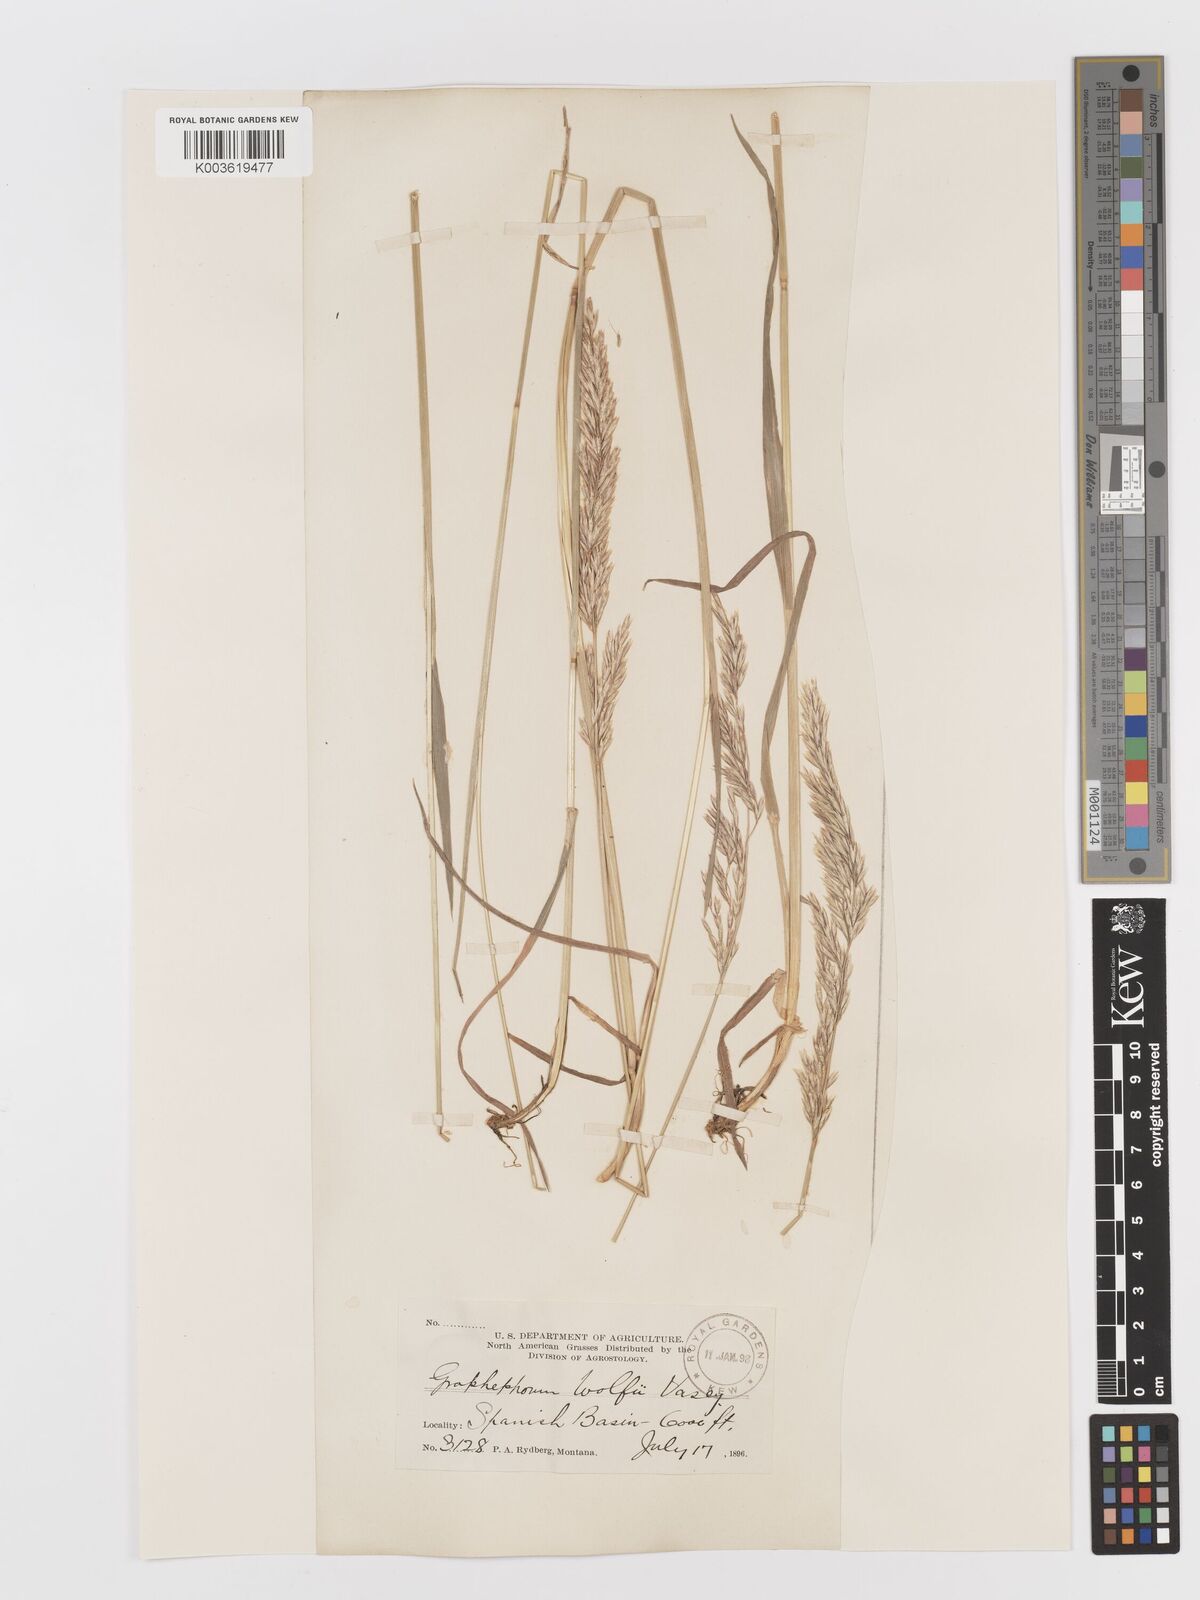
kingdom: Plantae
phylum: Tracheophyta
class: Liliopsida
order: Poales
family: Poaceae
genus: Graphephorum
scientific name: Graphephorum wolfii
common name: Wolf's trisetum
